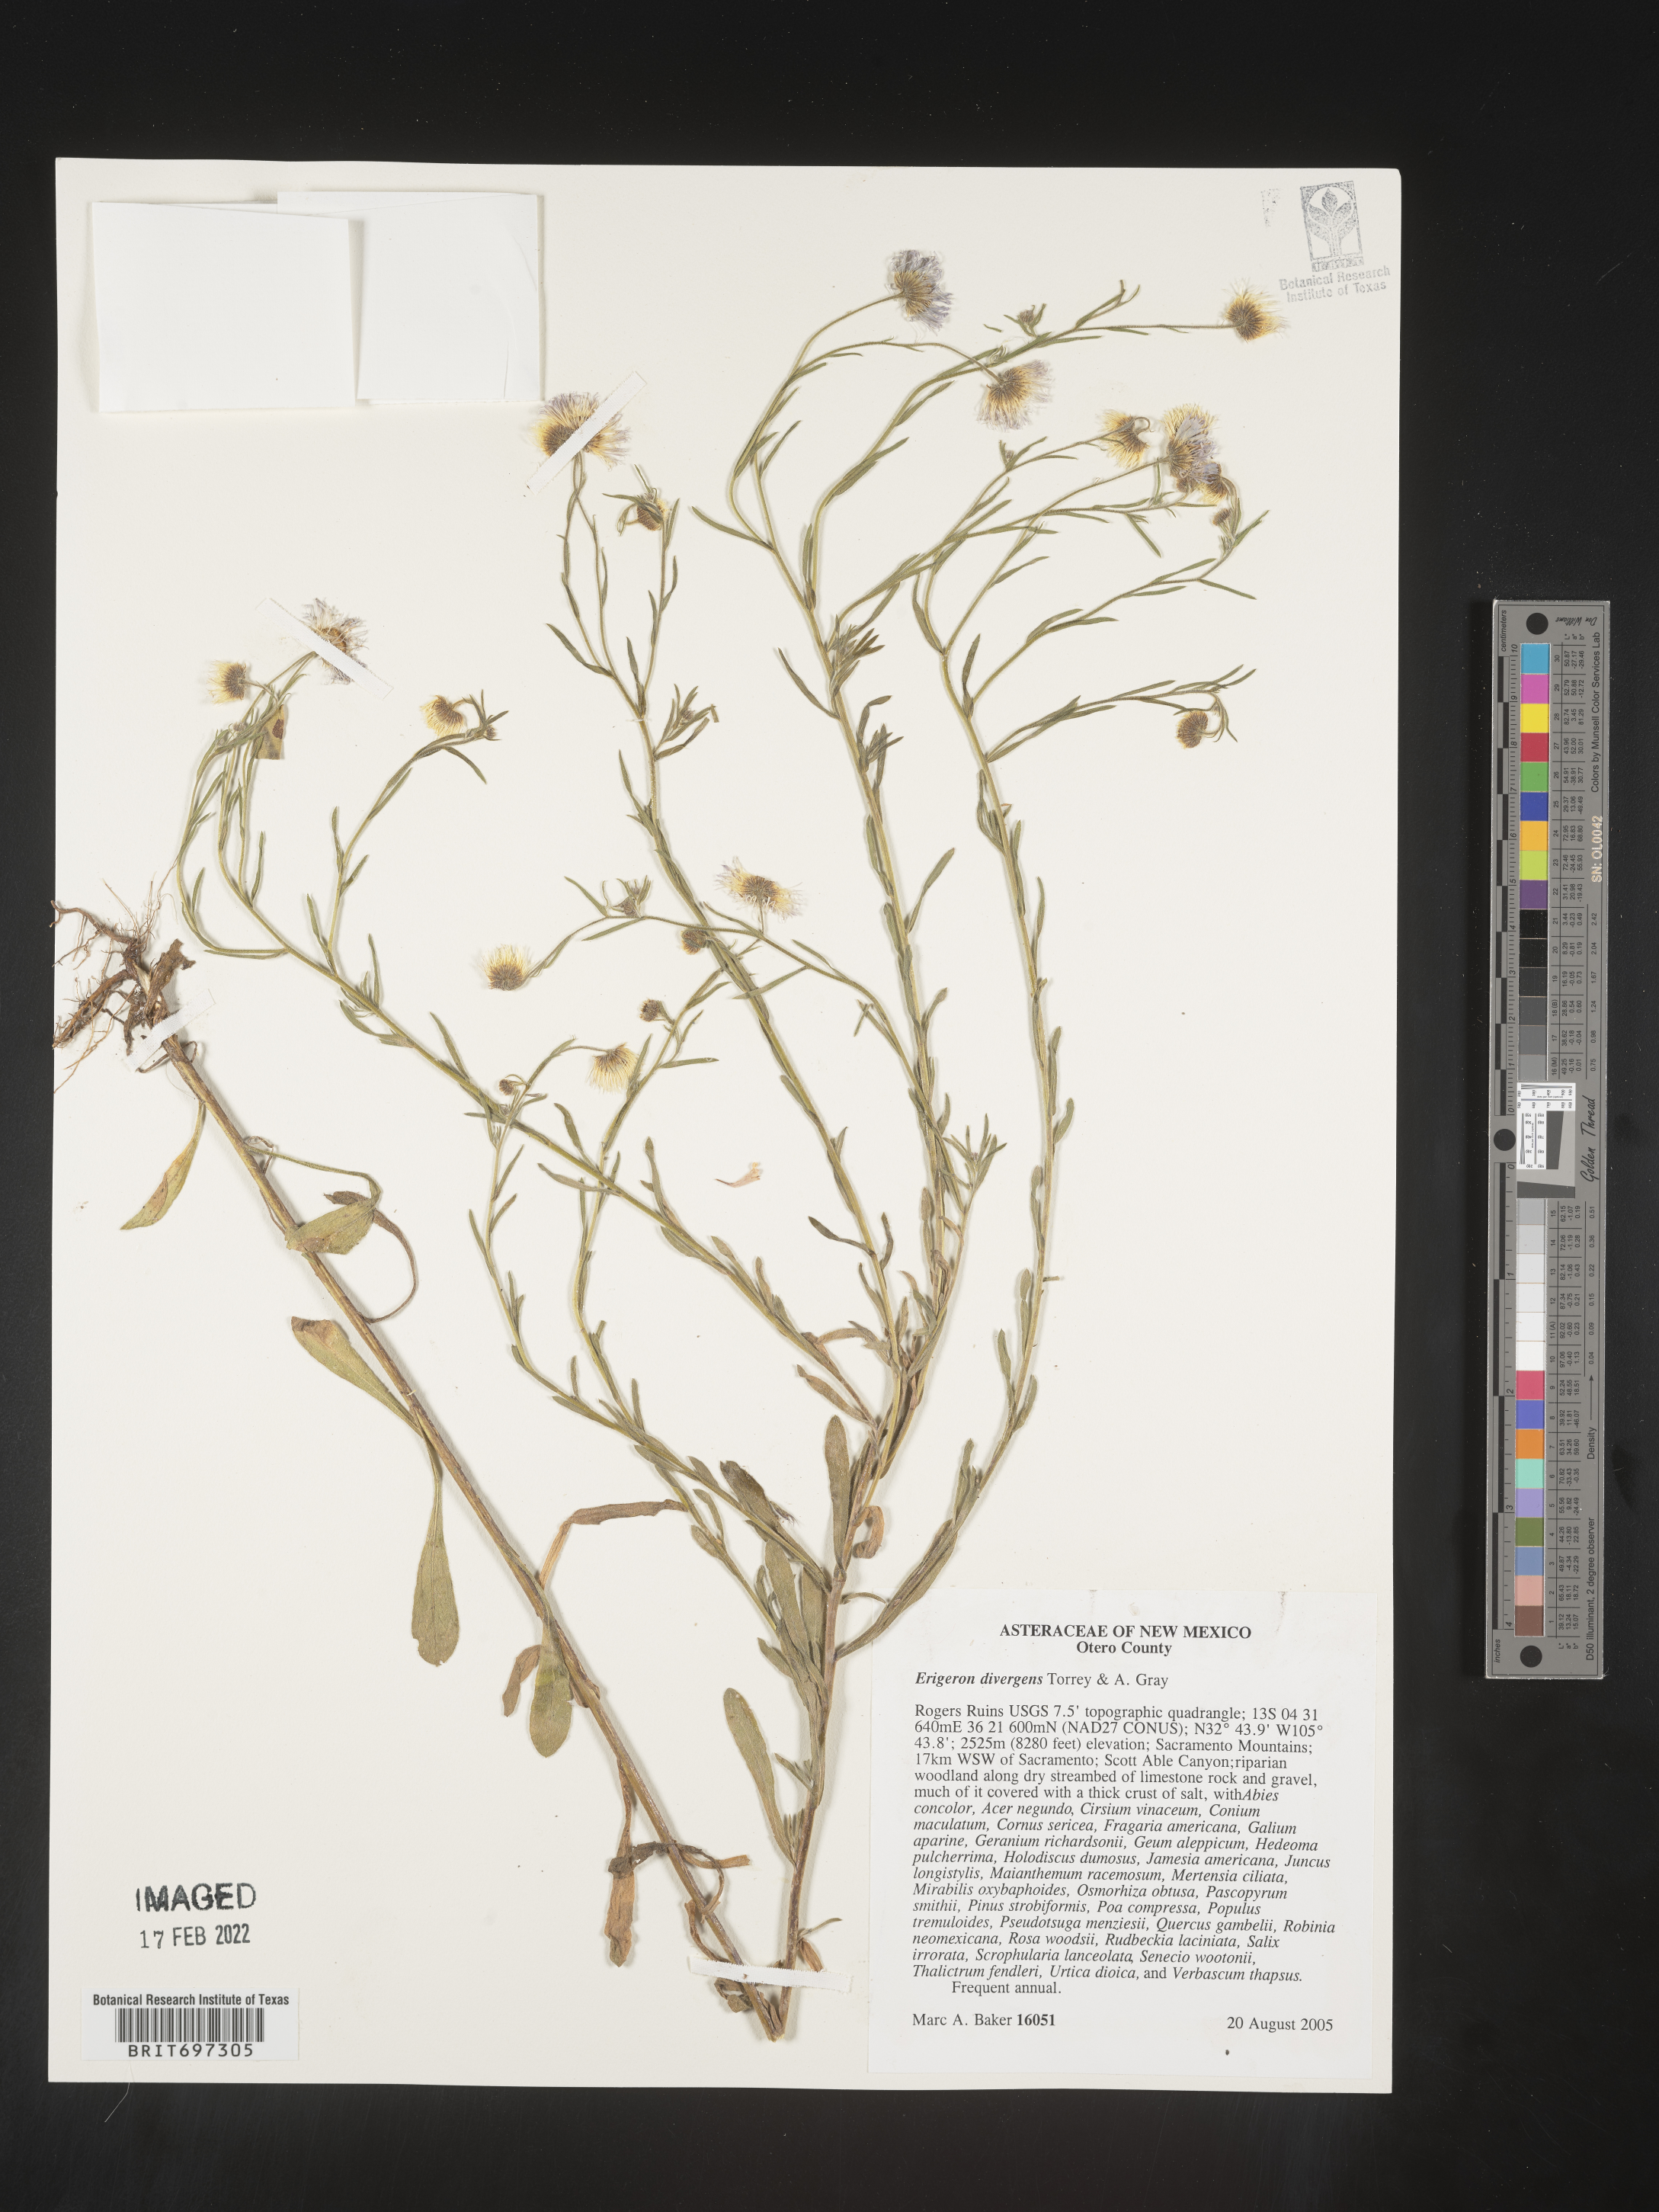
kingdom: Plantae
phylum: Tracheophyta
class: Magnoliopsida
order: Asterales
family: Asteraceae
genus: Erigeron
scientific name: Erigeron divergens
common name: Diffuse fleabane
